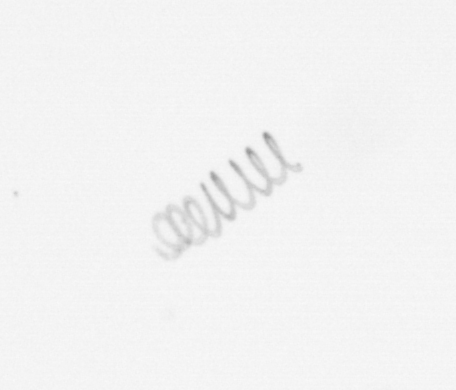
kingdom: Chromista
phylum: Ochrophyta
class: Bacillariophyceae
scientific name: Bacillariophyceae
